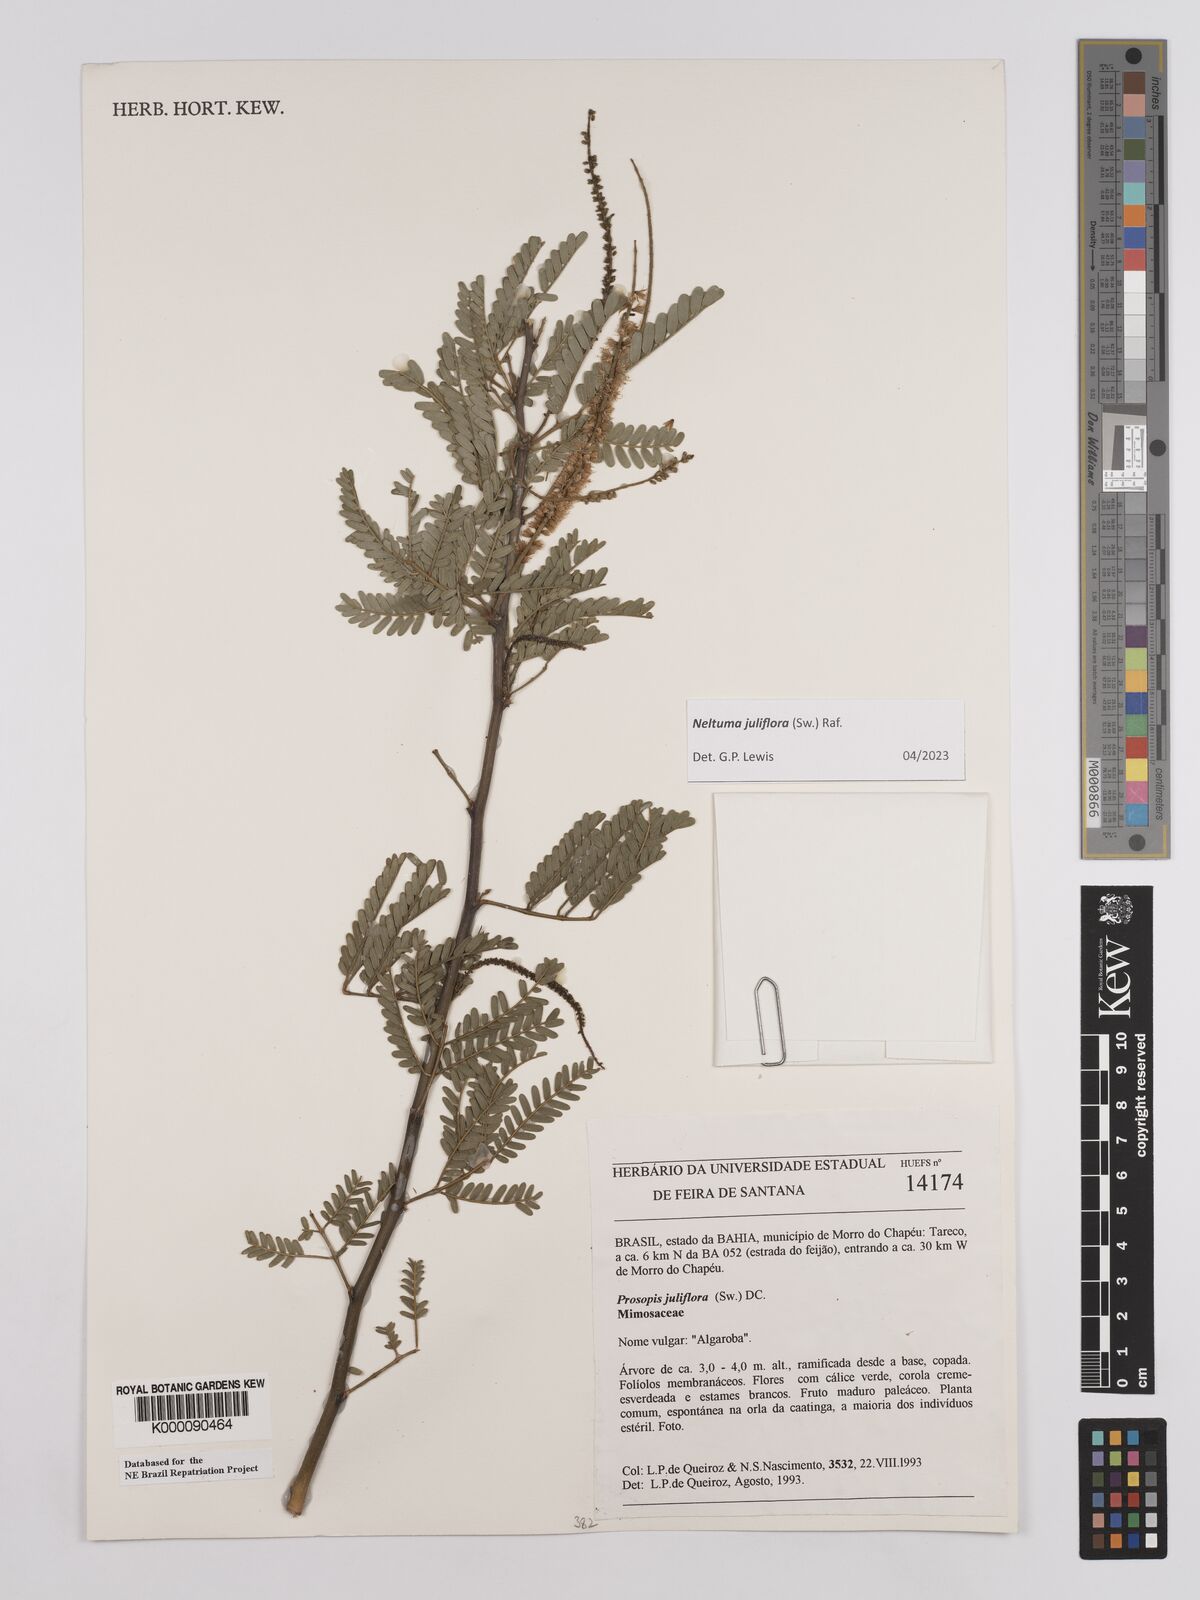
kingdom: Plantae
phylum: Tracheophyta
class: Magnoliopsida
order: Fabales
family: Fabaceae
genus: Prosopis
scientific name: Prosopis juliflora
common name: Mesquite
